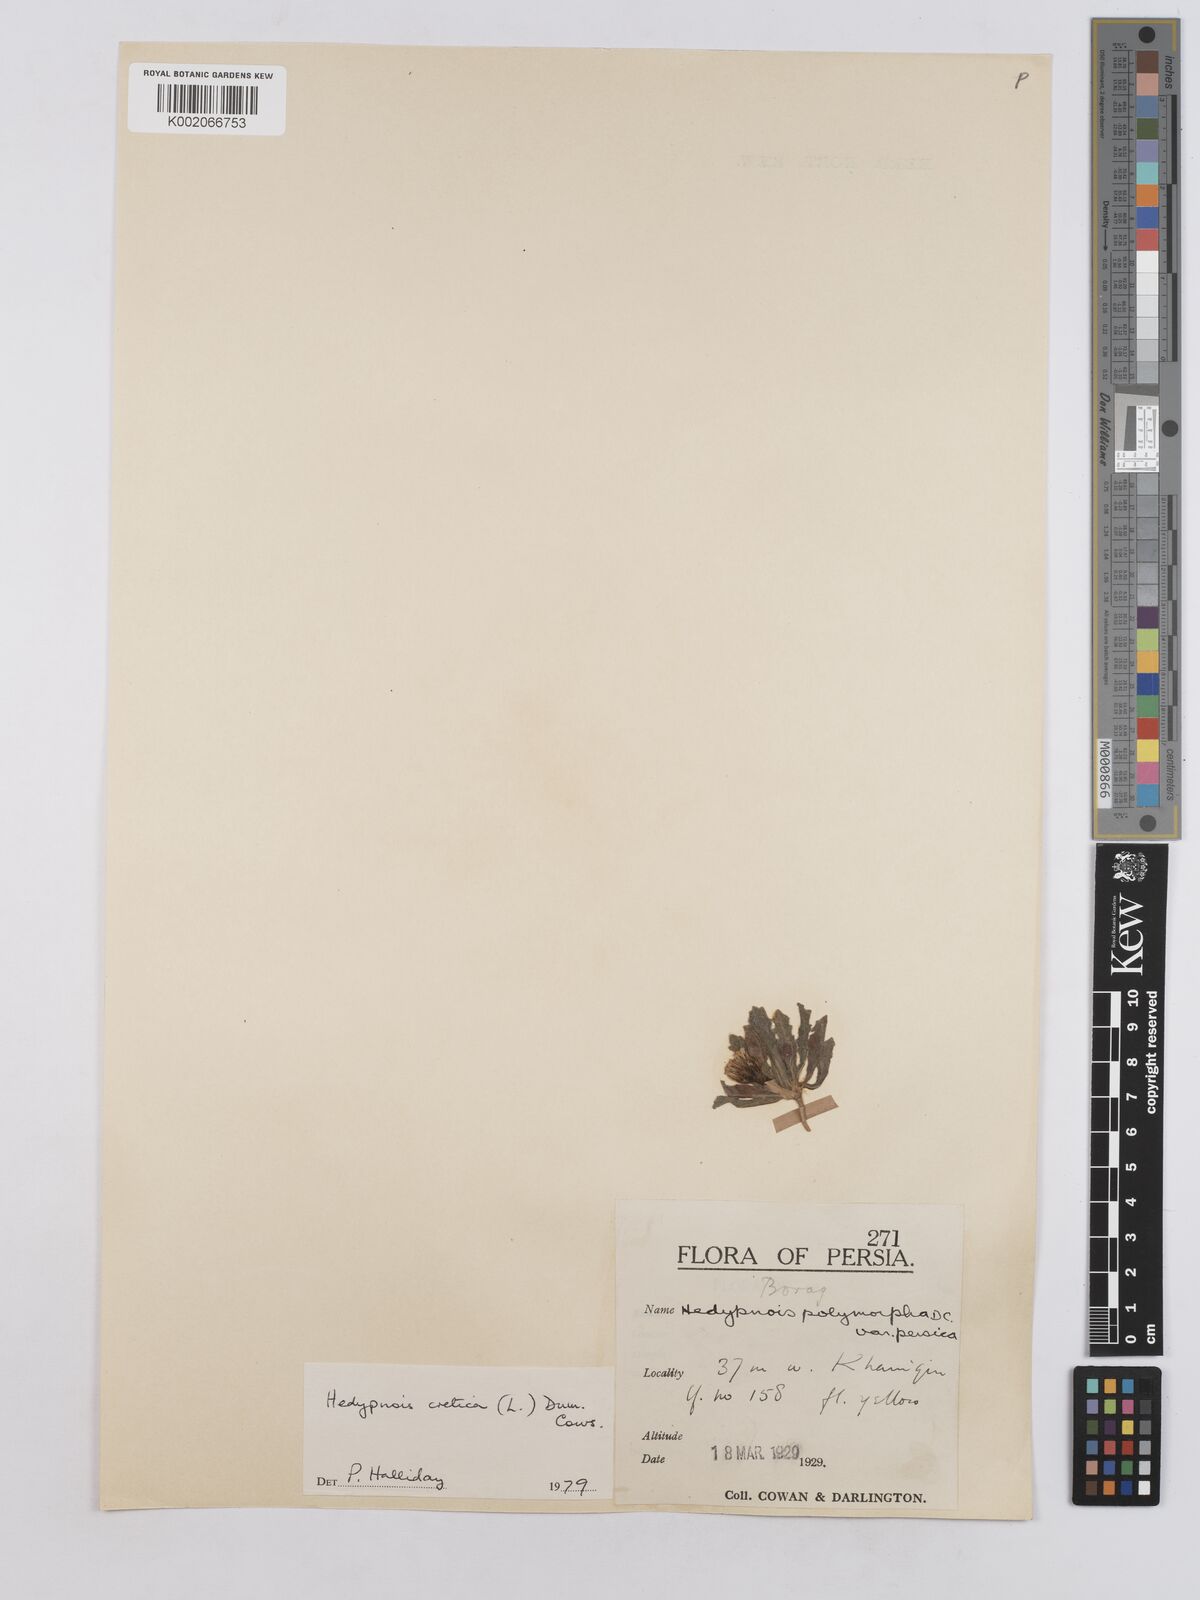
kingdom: Plantae
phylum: Tracheophyta
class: Magnoliopsida
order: Asterales
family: Asteraceae
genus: Hedypnois
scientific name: Hedypnois cretica
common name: Scaly hawkbit
